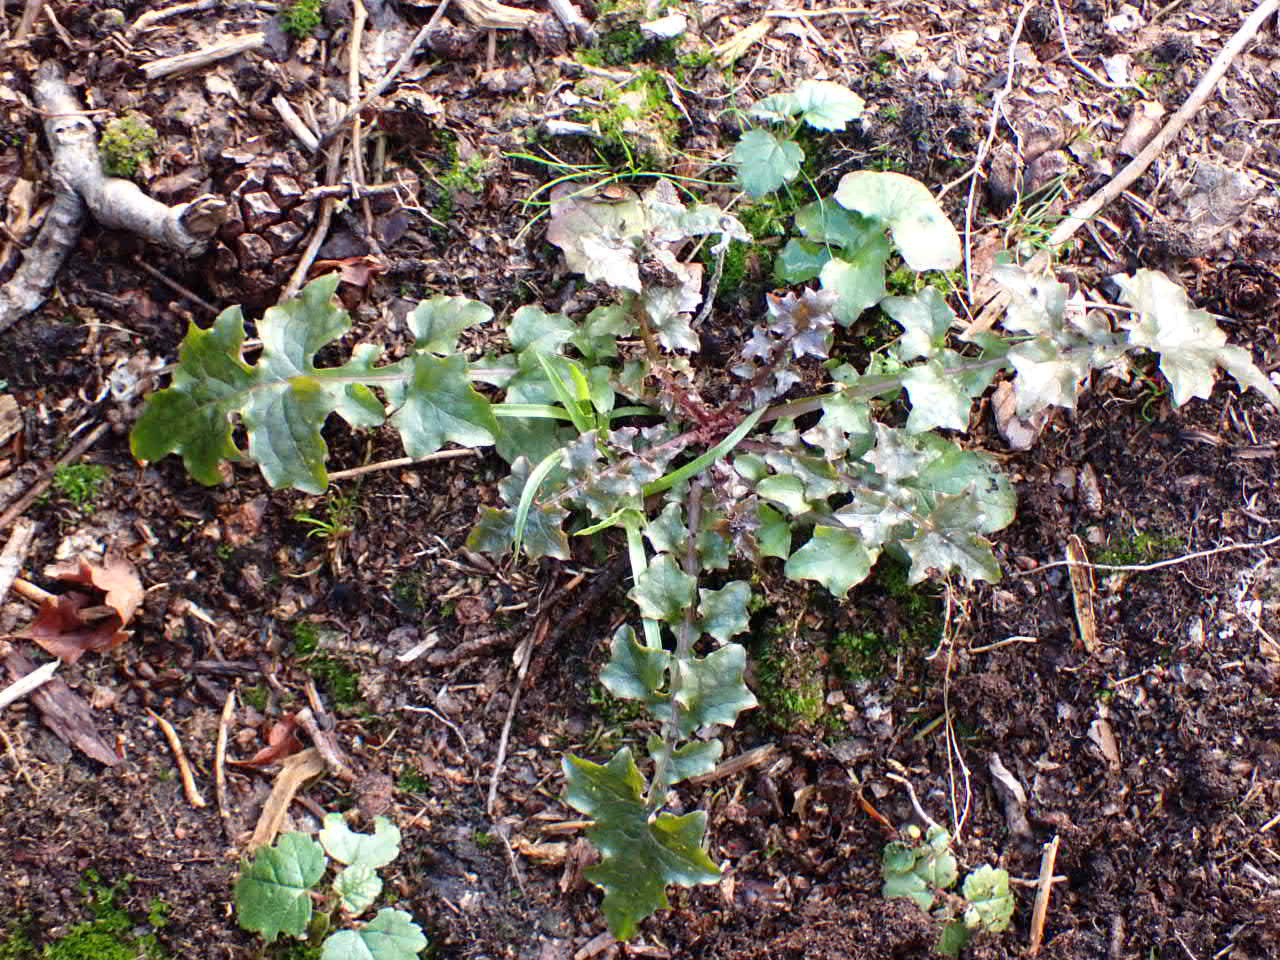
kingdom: Plantae
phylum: Tracheophyta
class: Magnoliopsida
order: Asterales
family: Asteraceae
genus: Sonchus
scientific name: Sonchus oleraceus
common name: Almindelig svinemælk
